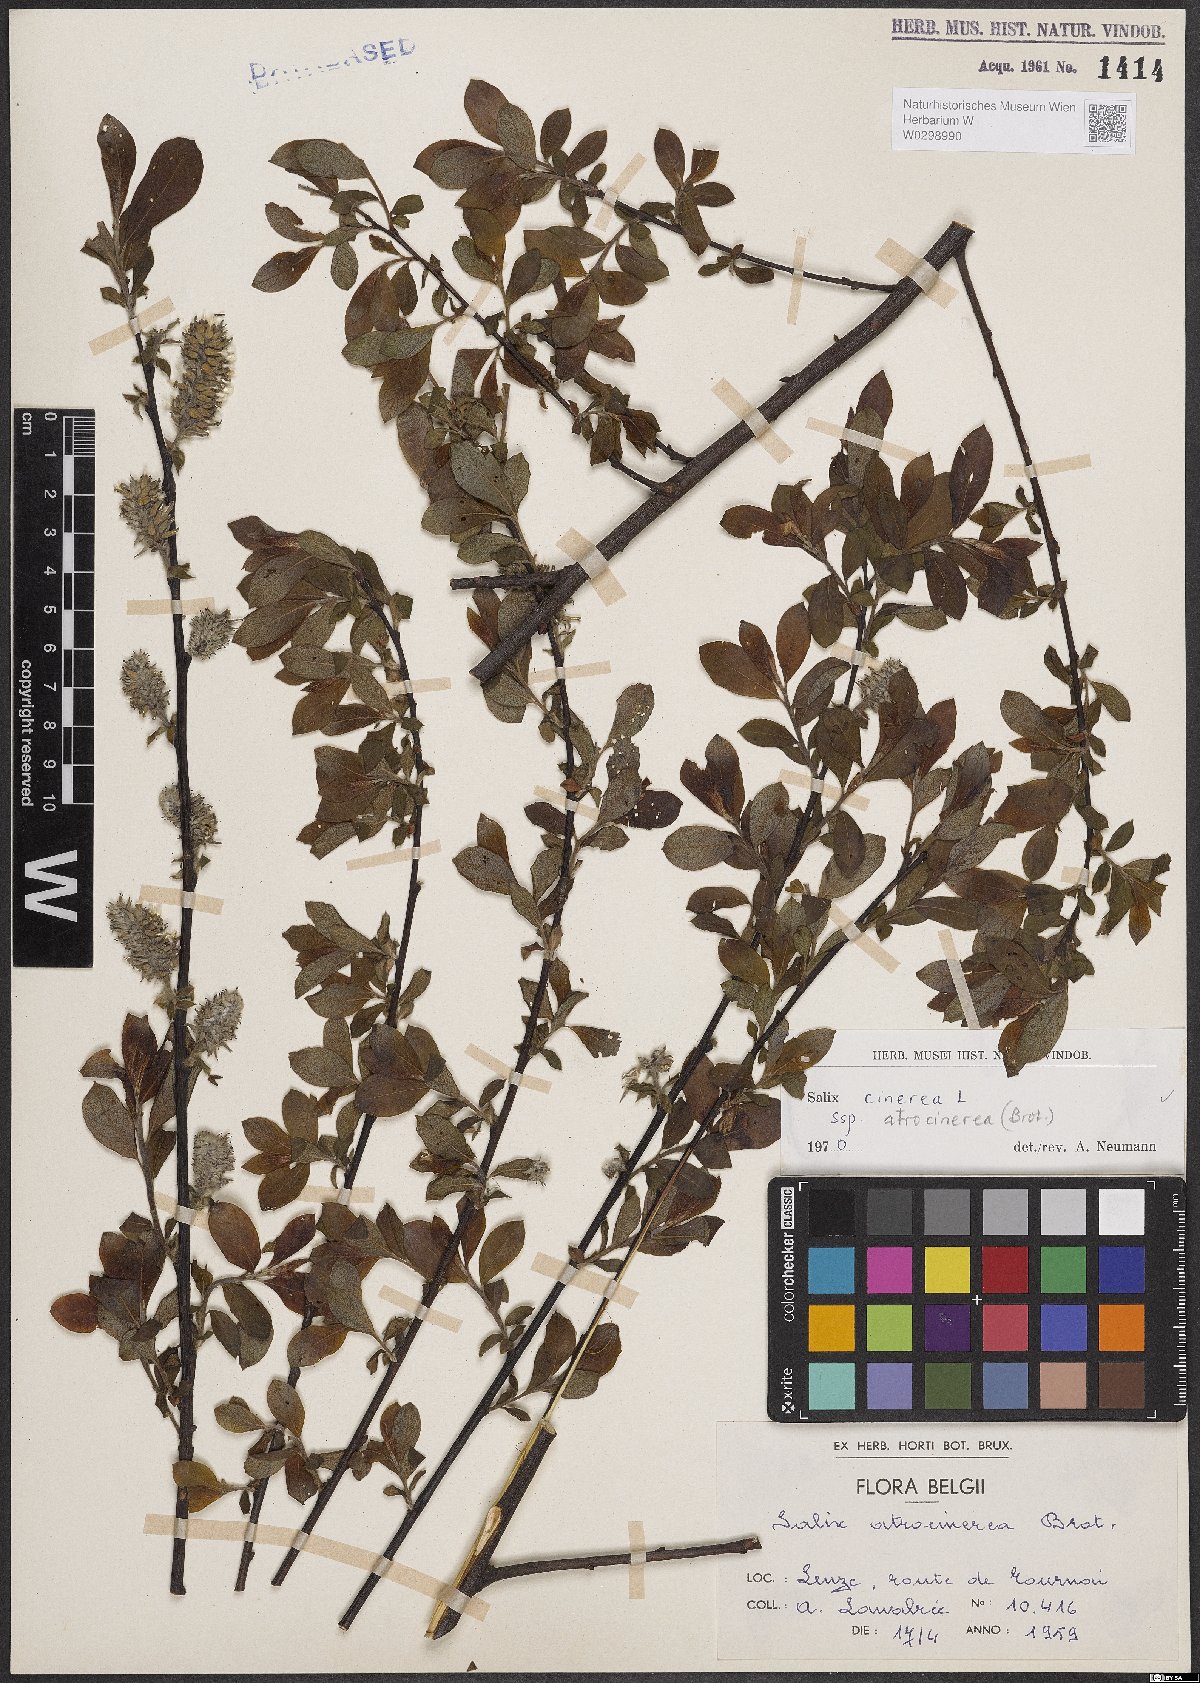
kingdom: Plantae
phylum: Tracheophyta
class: Magnoliopsida
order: Malpighiales
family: Salicaceae
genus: Salix
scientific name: Salix atrocinerea
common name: Rusty willow
